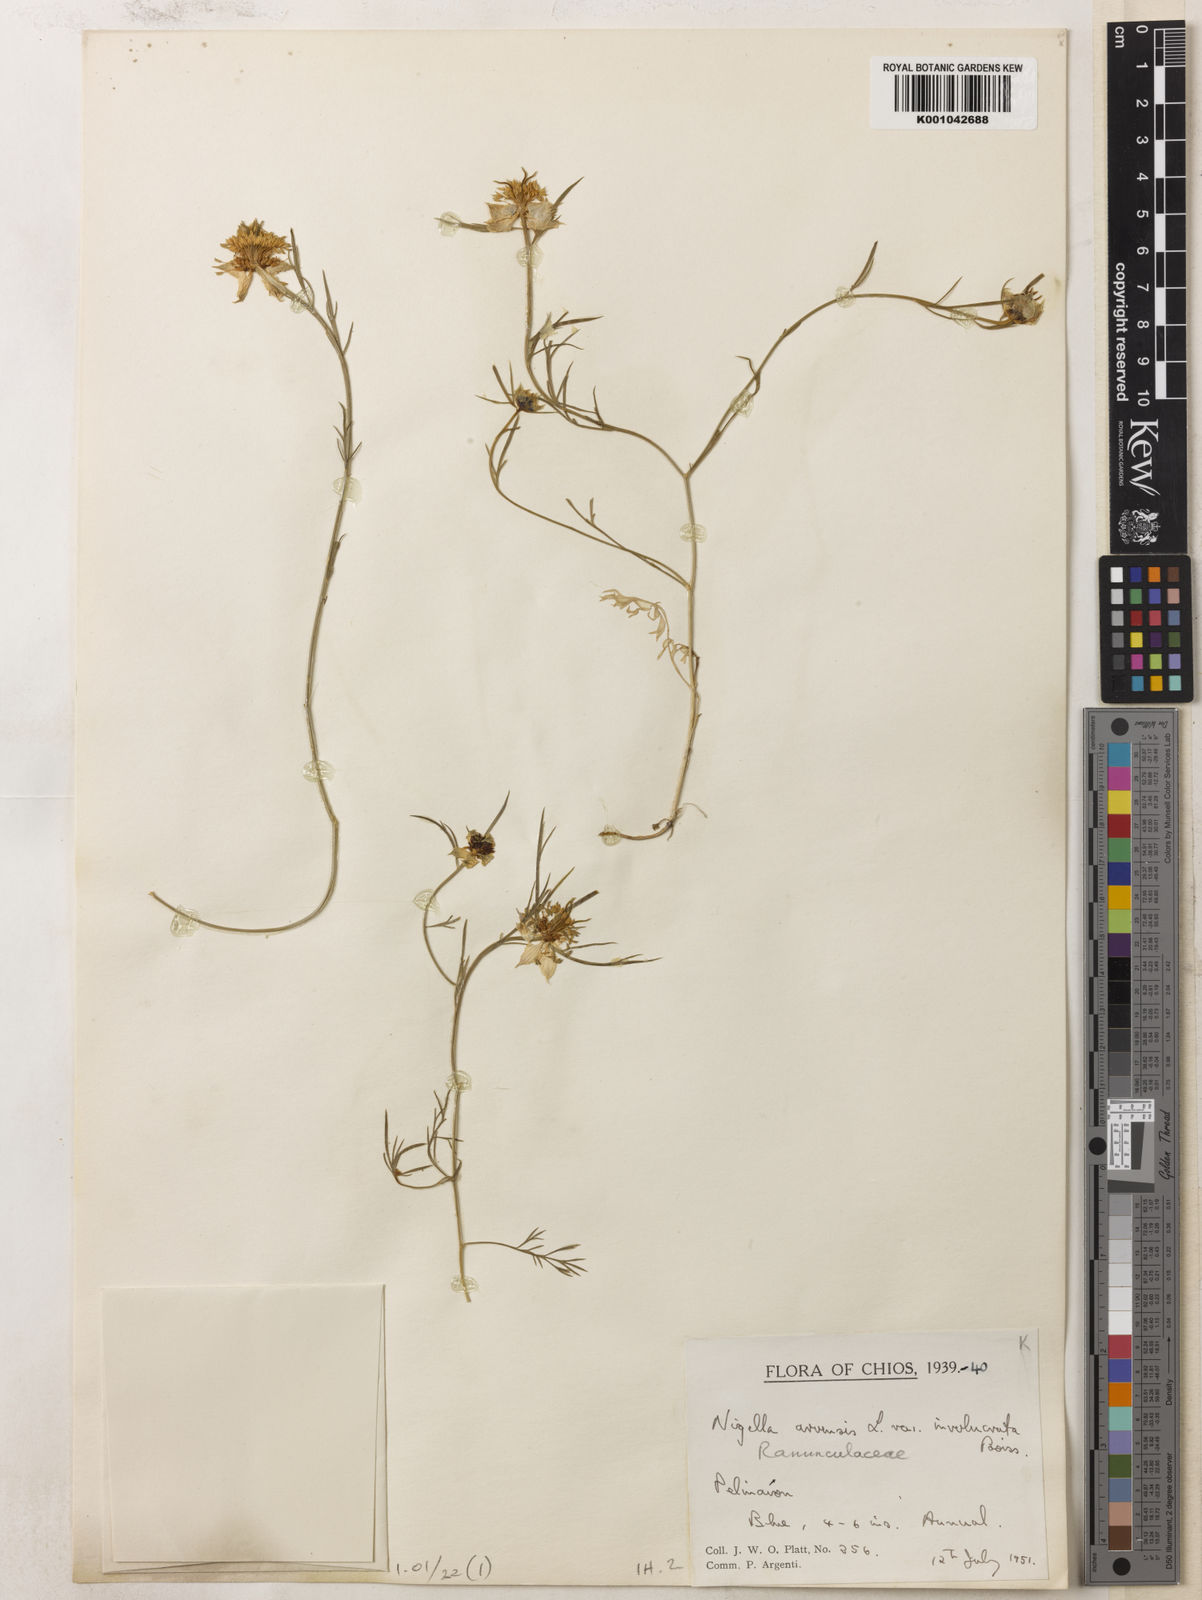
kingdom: Plantae
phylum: Tracheophyta
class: Magnoliopsida
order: Ranunculales
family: Ranunculaceae
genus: Nigella
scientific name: Nigella arvensis
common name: Wild fennel-flower
